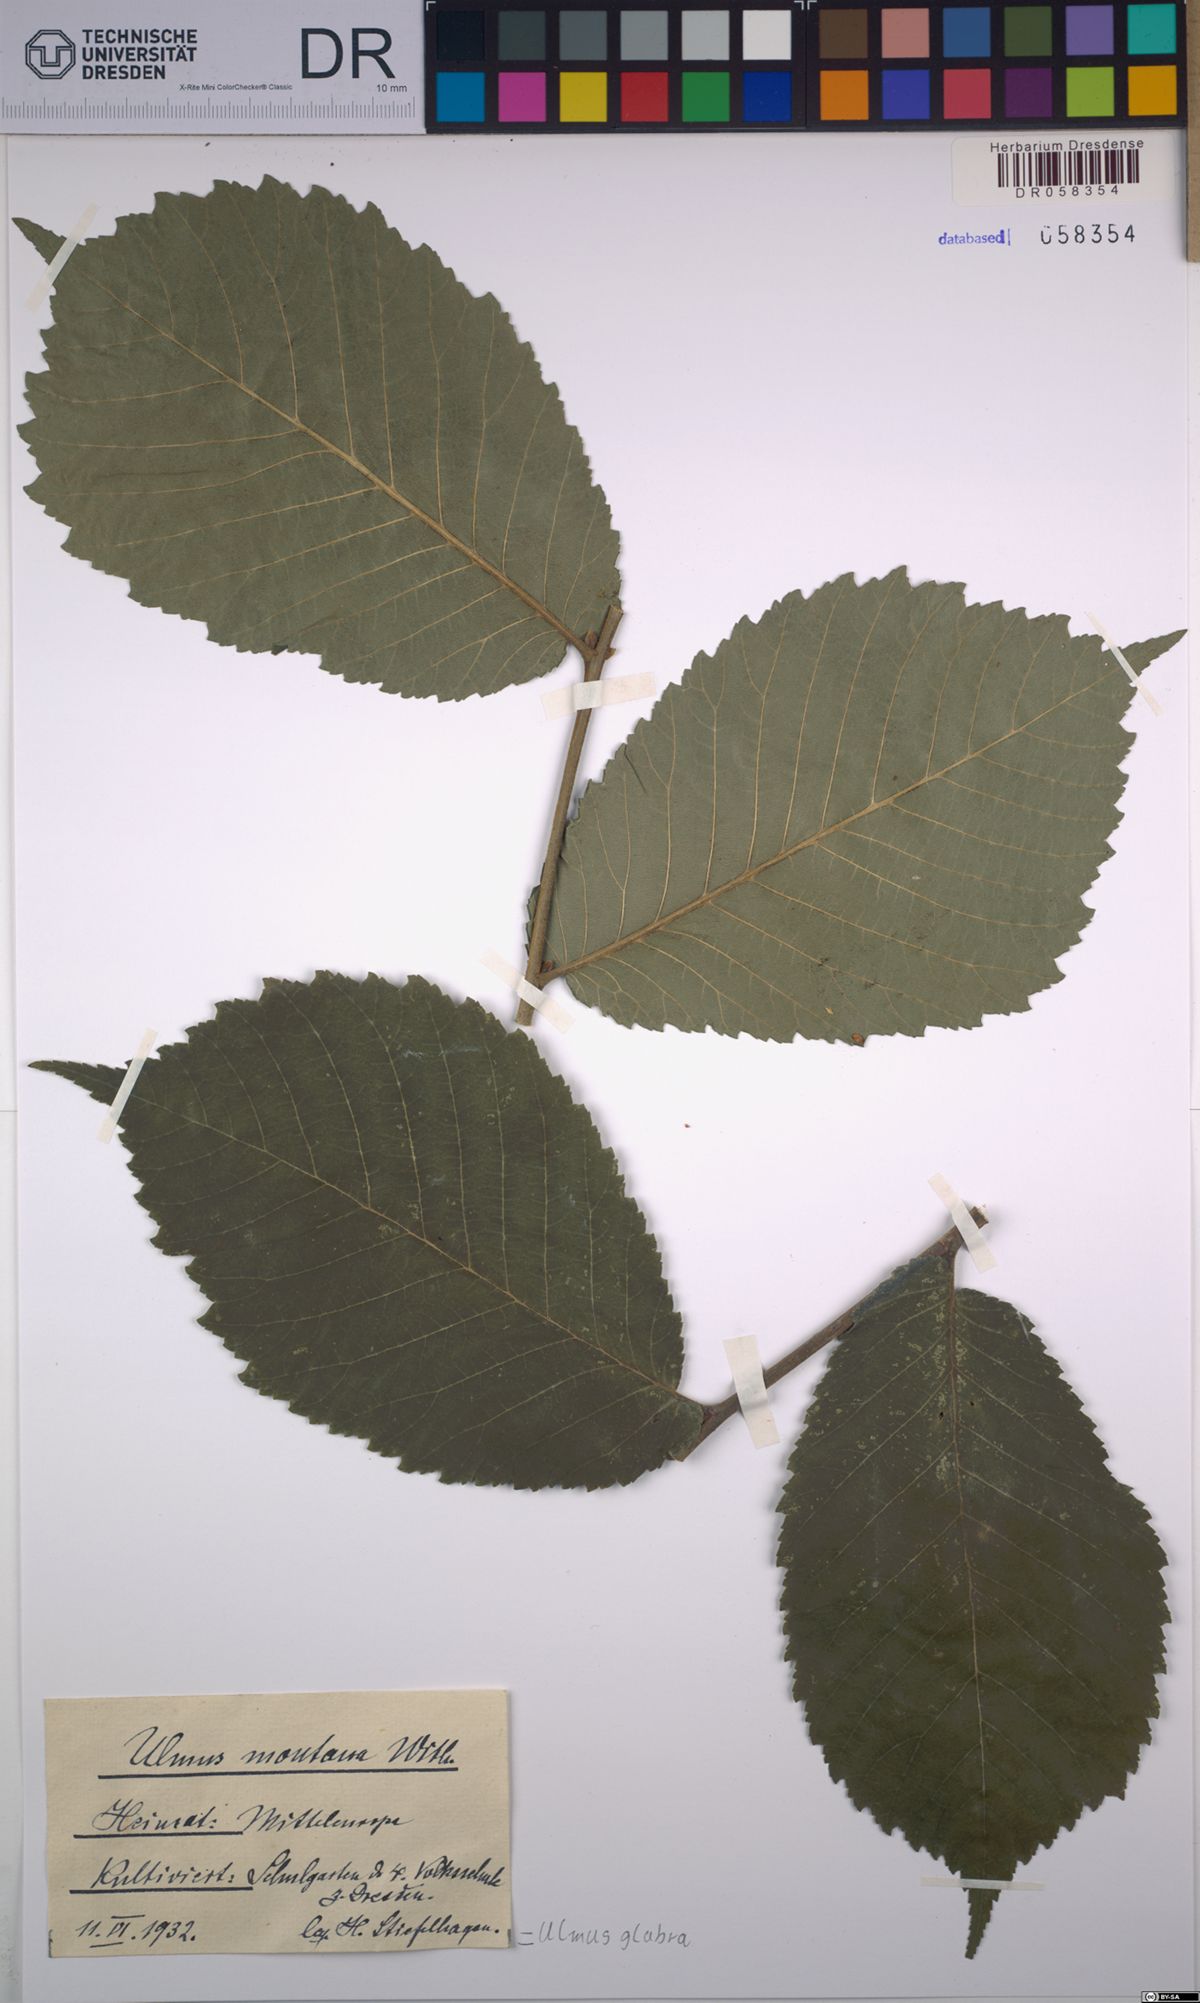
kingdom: Plantae
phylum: Tracheophyta
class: Magnoliopsida
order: Rosales
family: Ulmaceae
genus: Ulmus
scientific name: Ulmus glabra
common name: Wych elm
